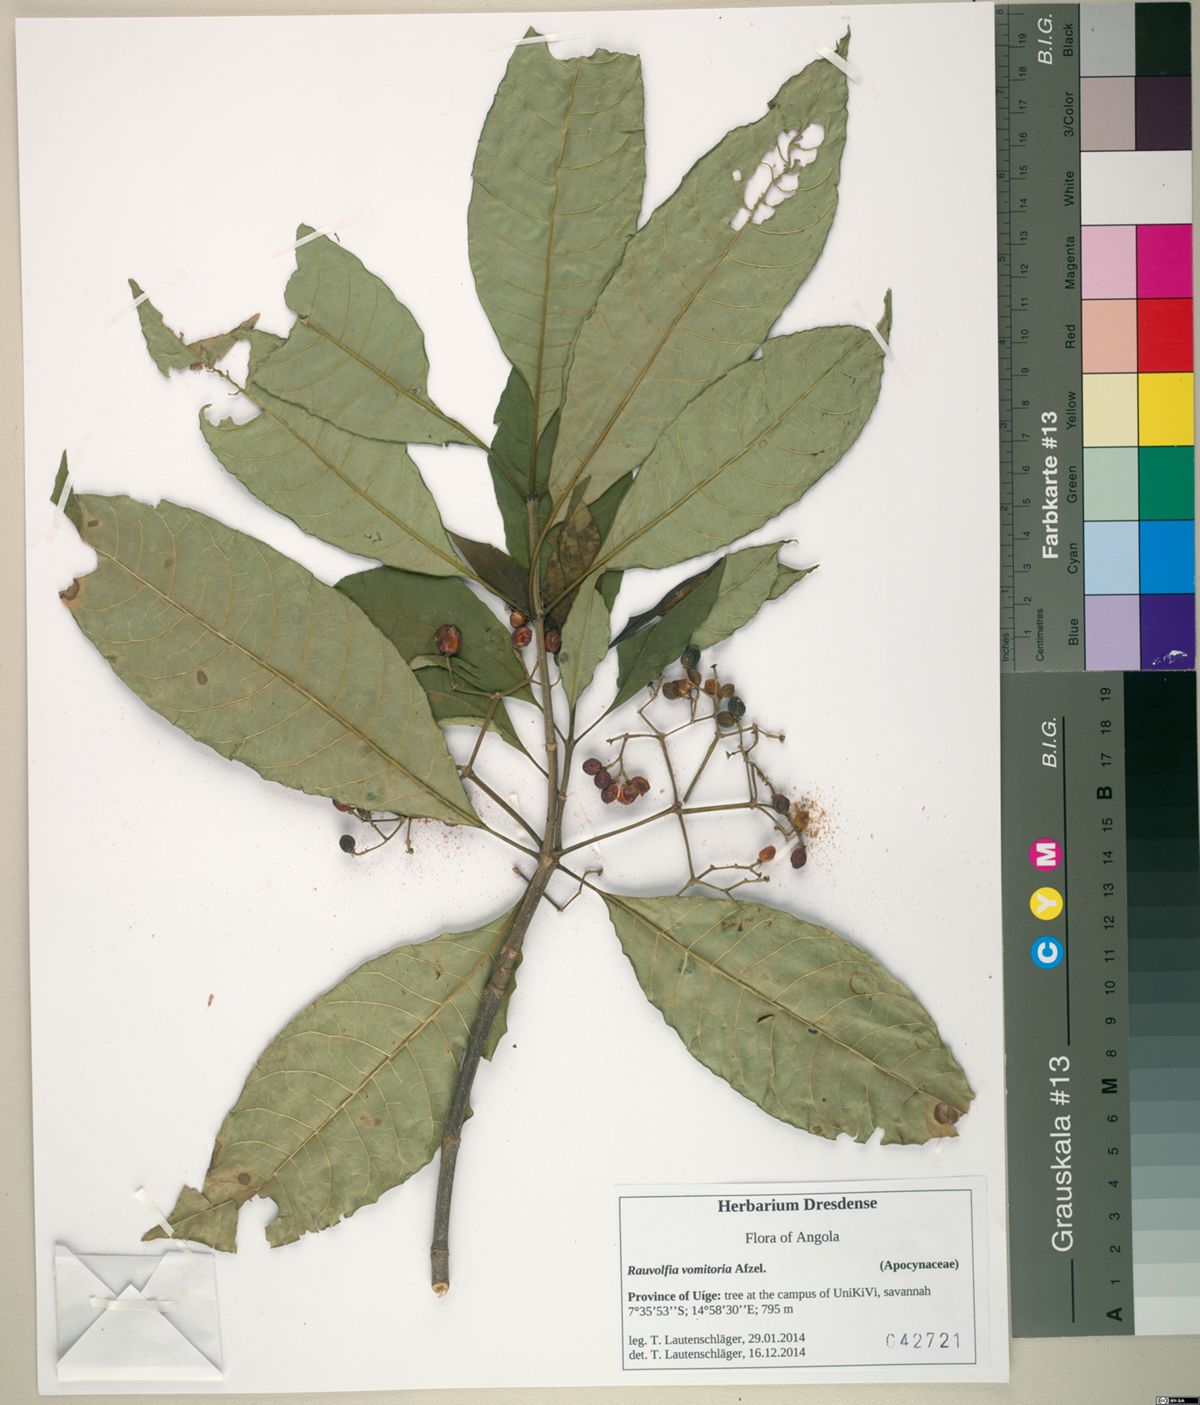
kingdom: Plantae
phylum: Tracheophyta
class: Magnoliopsida
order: Gentianales
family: Apocynaceae
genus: Rauvolfia
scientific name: Rauvolfia vomitoria
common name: Poison devil's-pepper
